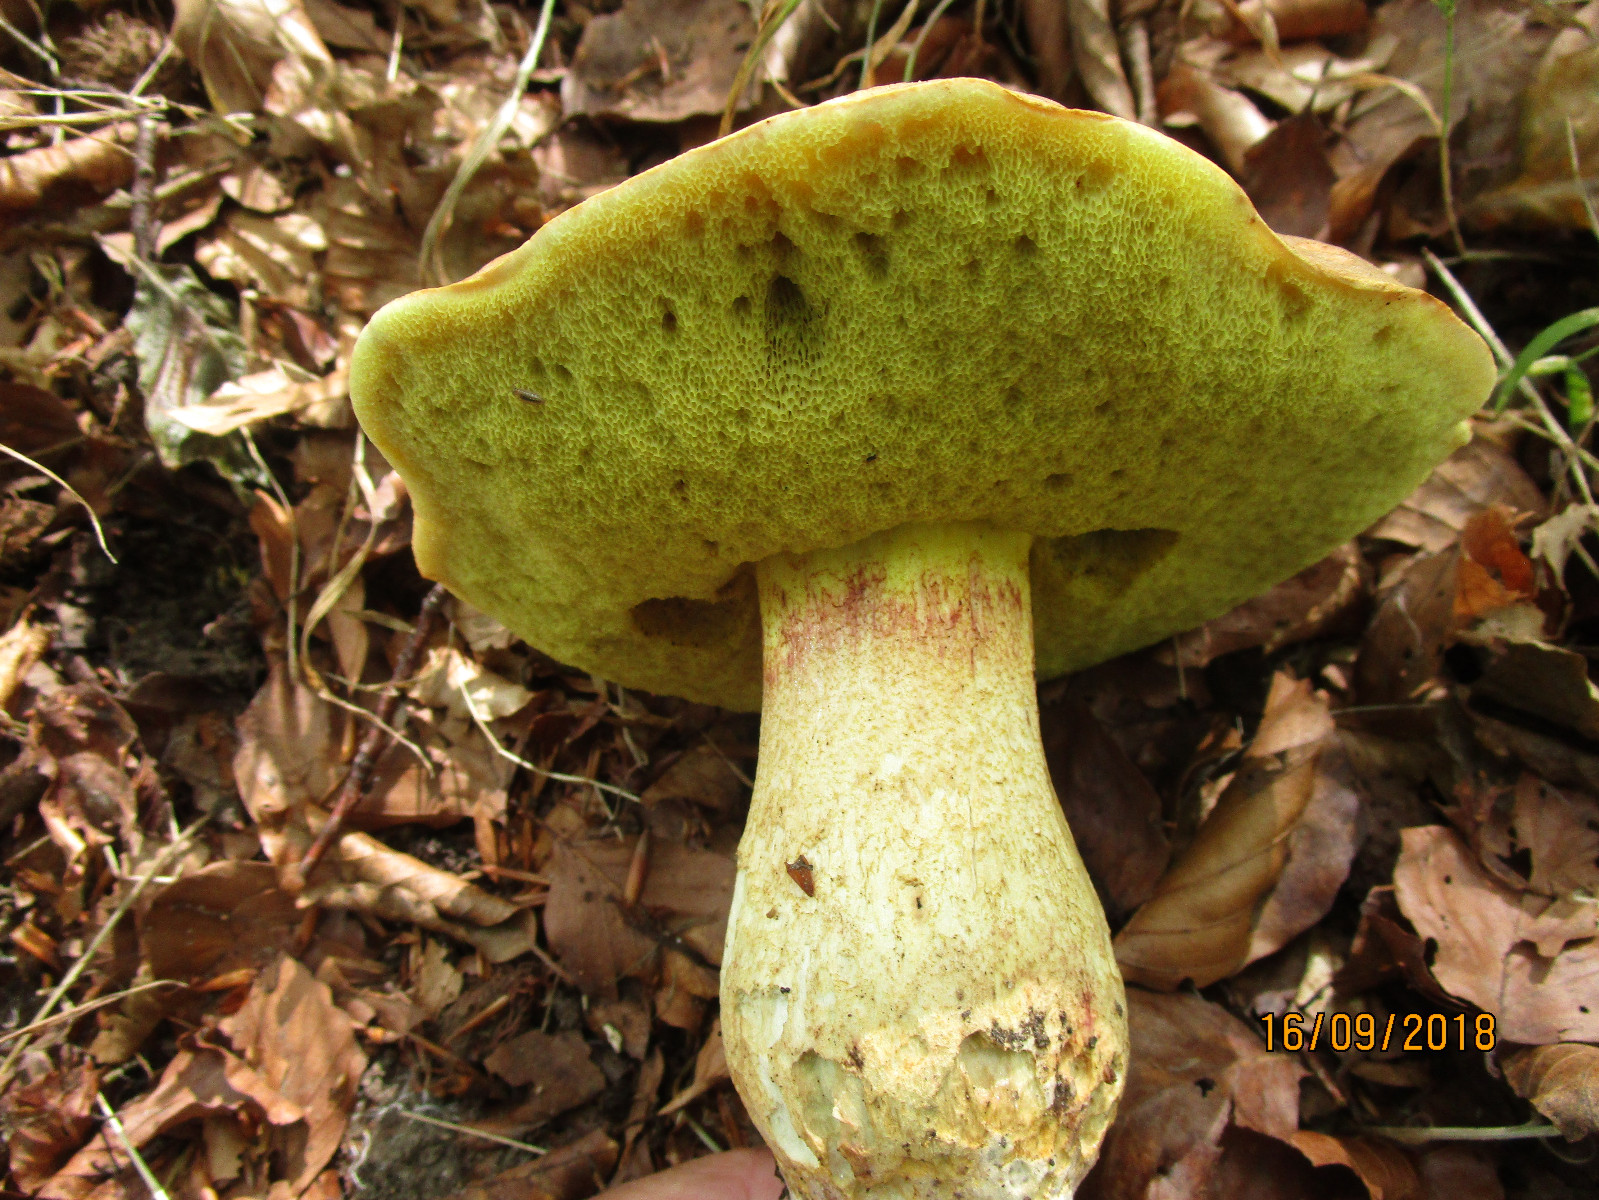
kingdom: Fungi
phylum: Basidiomycota
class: Agaricomycetes
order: Boletales
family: Boletaceae
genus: Hemileccinum
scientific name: Hemileccinum impolitum
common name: bleg rørhat
